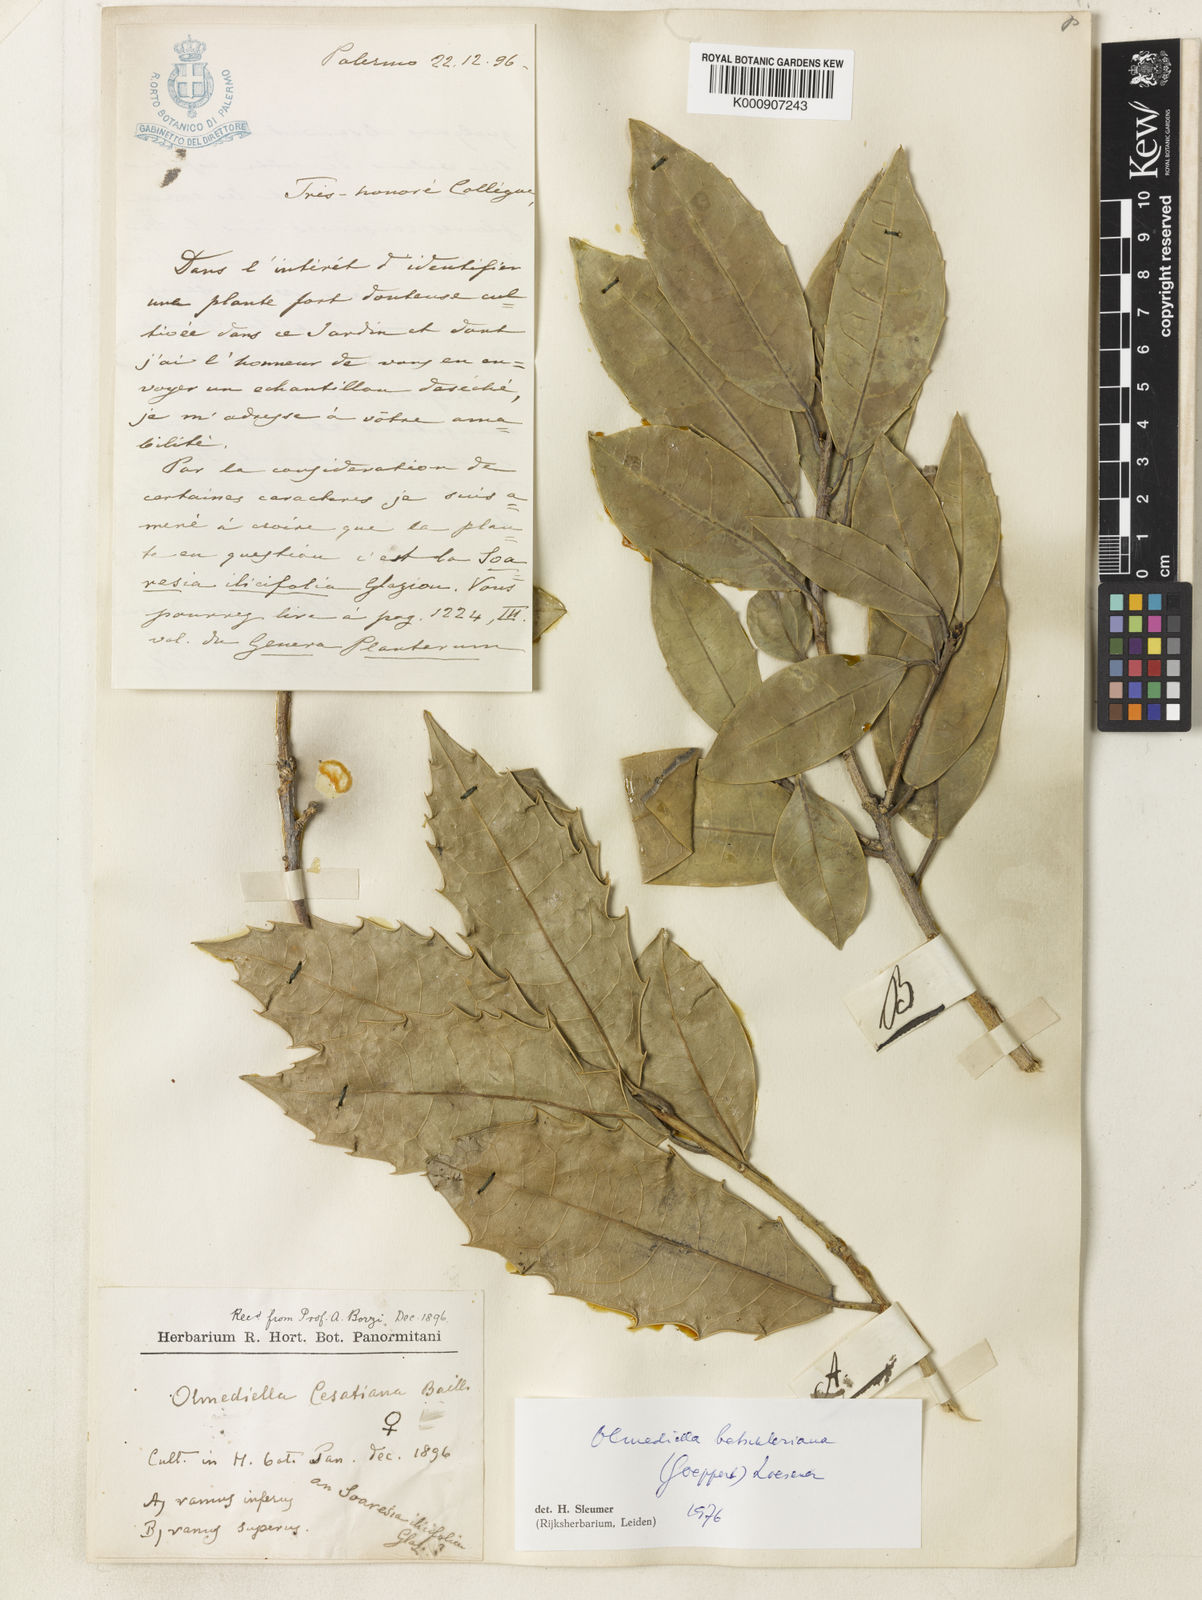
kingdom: Plantae
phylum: Tracheophyta
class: Magnoliopsida
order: Malpighiales
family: Salicaceae
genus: Olmediella
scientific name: Olmediella
